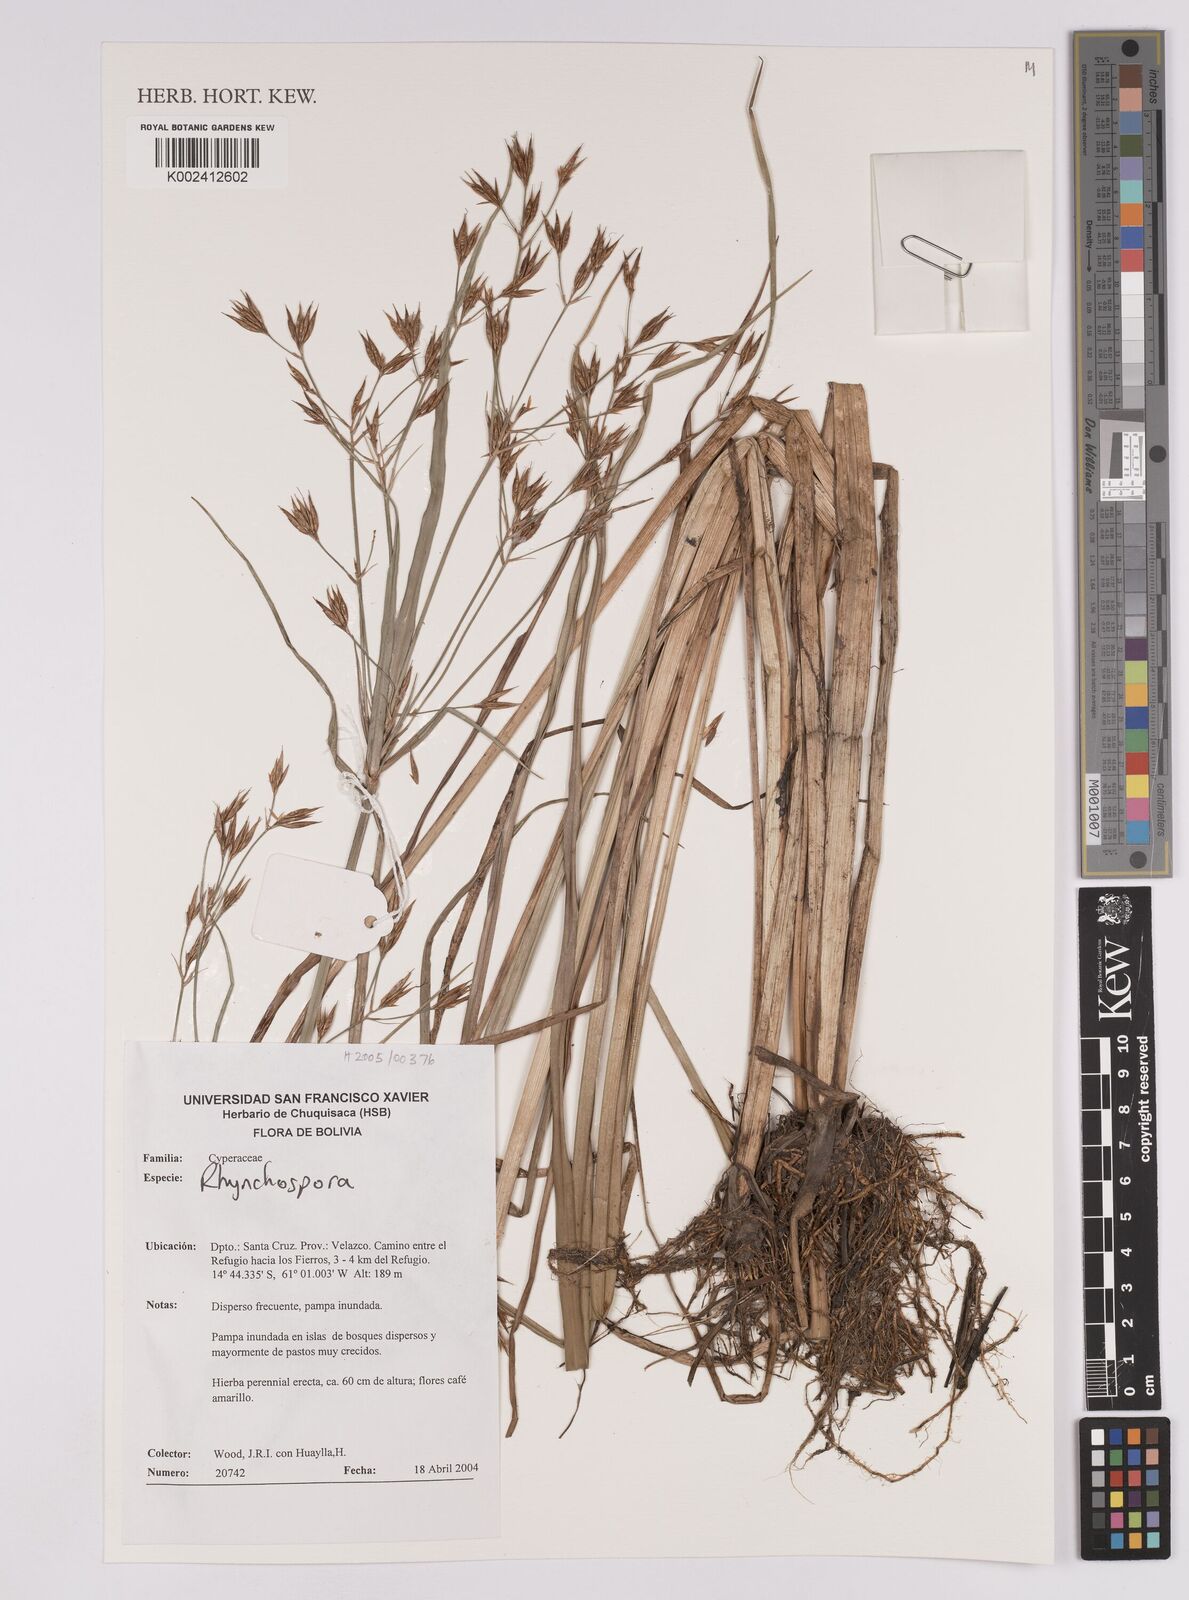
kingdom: Plantae
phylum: Tracheophyta
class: Liliopsida
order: Poales
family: Cyperaceae
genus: Rhynchospora
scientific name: Rhynchospora
